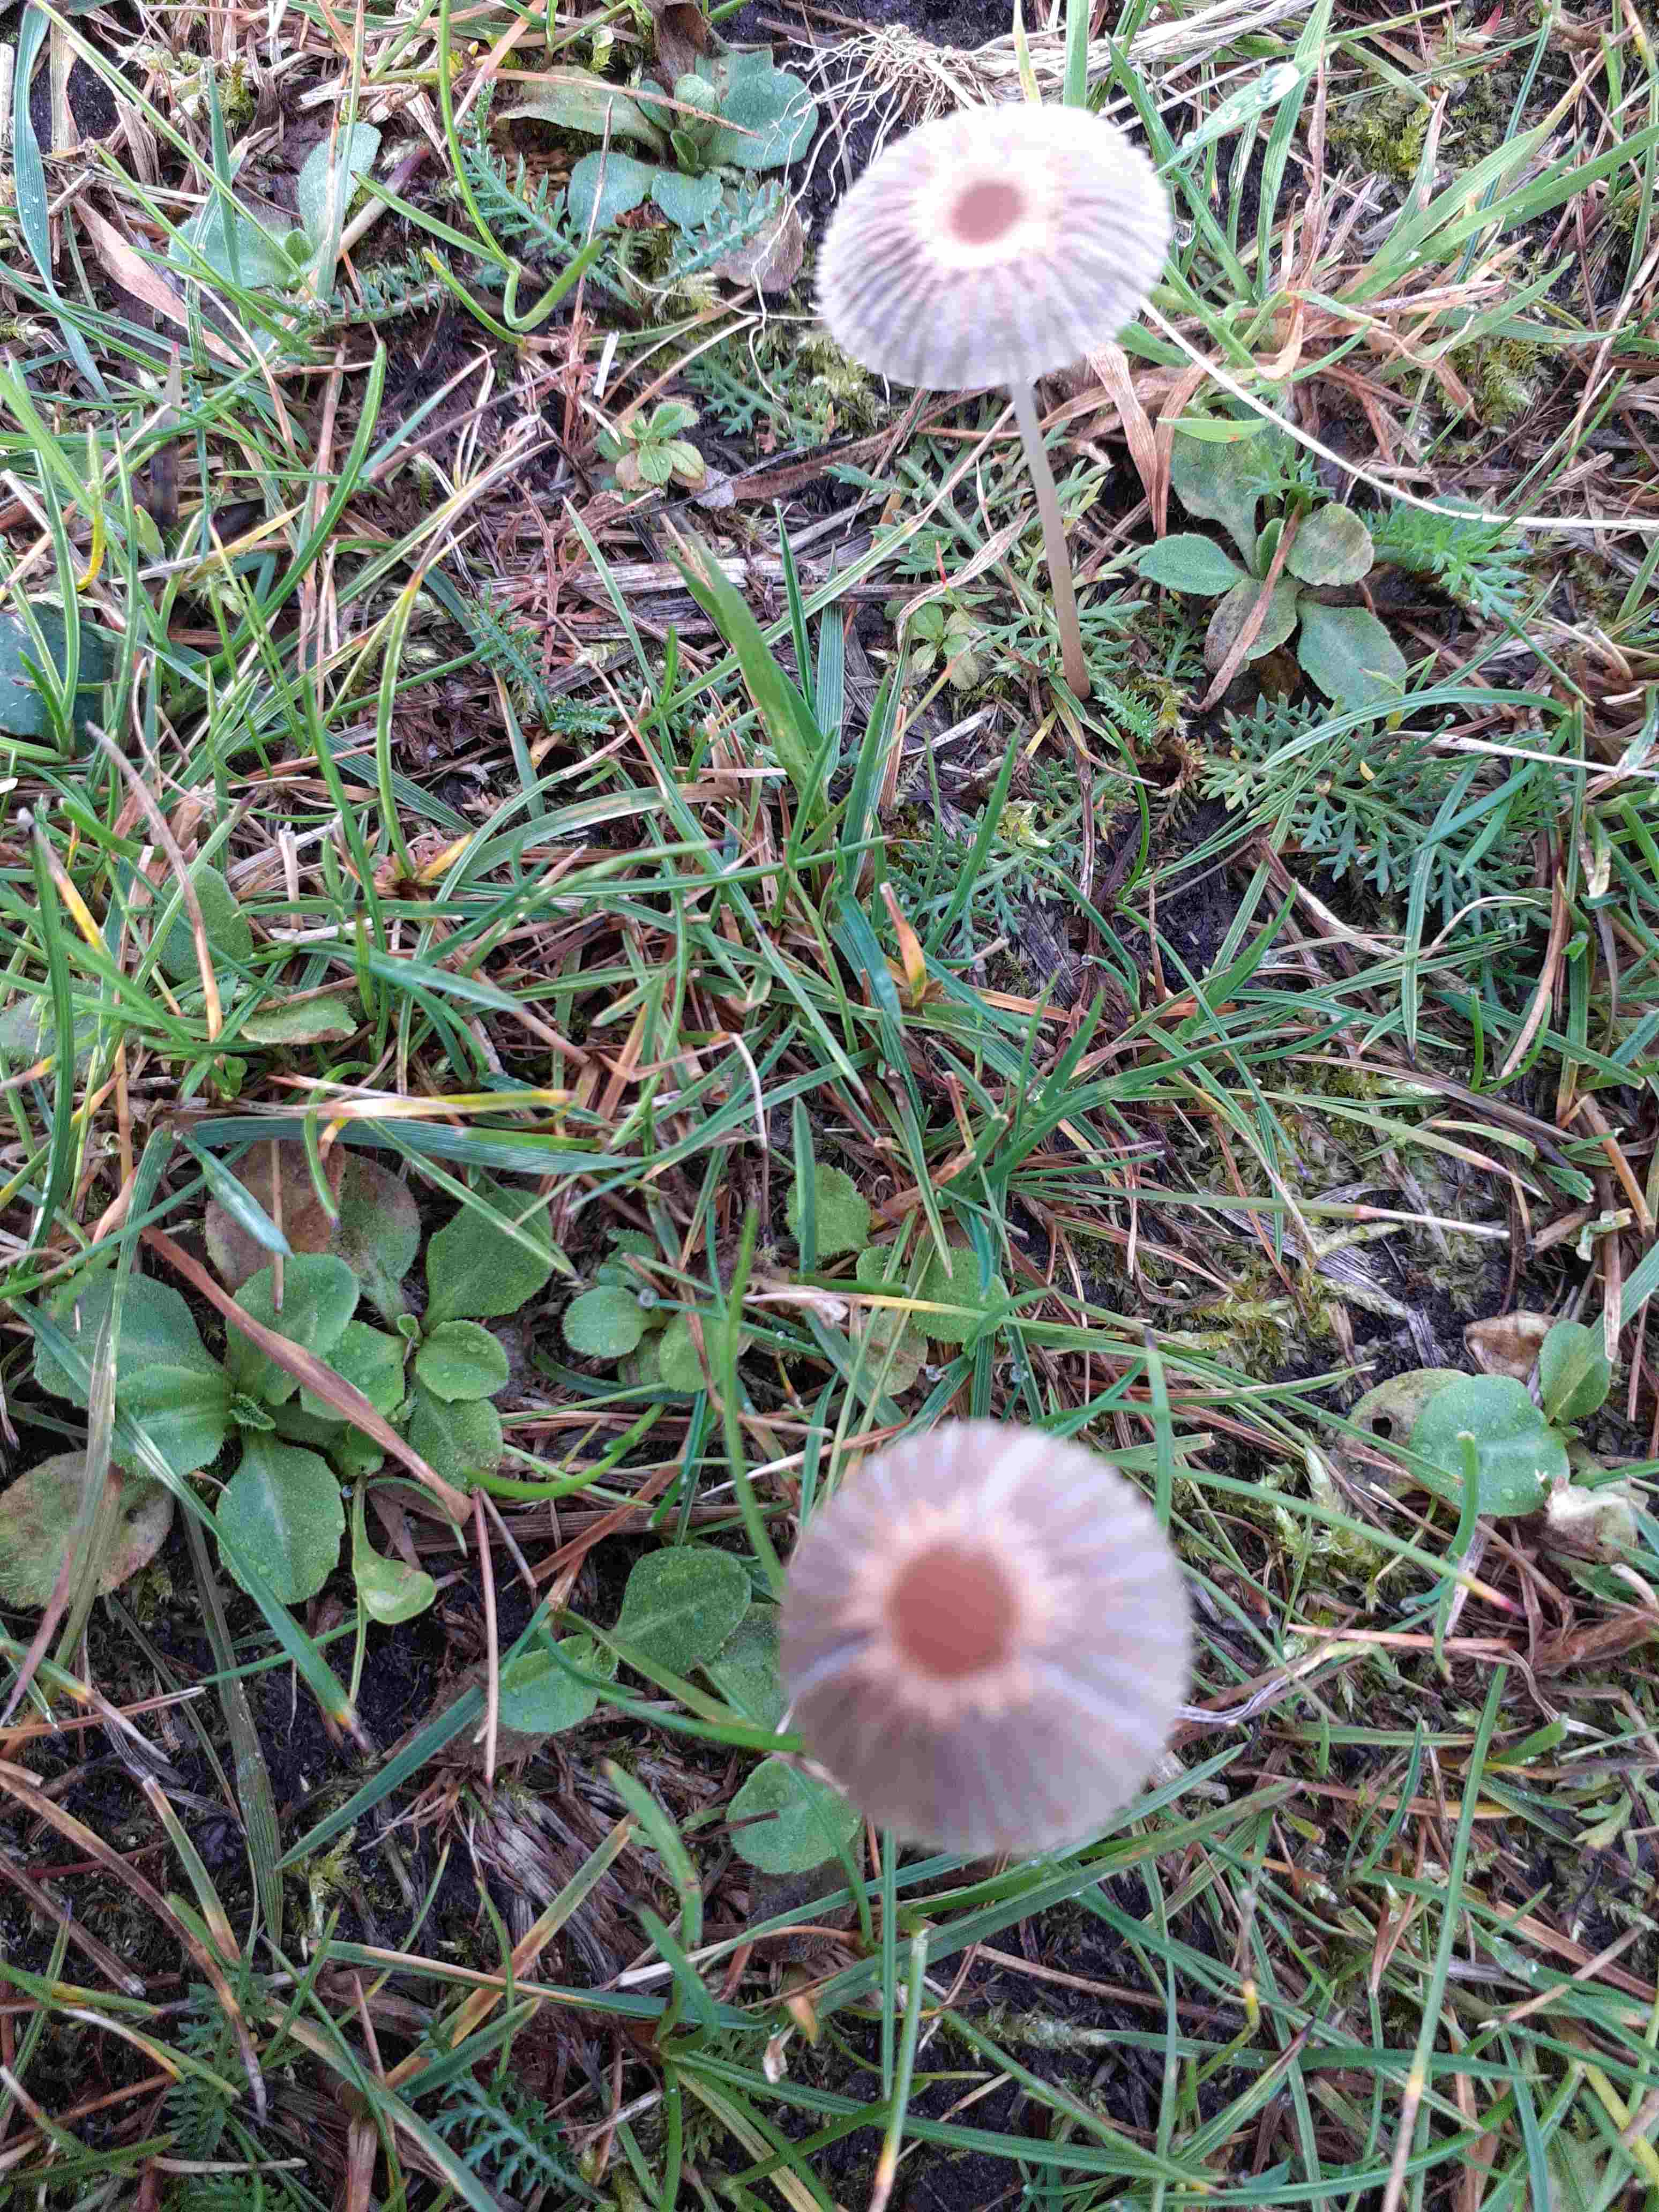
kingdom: Fungi
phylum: Basidiomycota
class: Agaricomycetes
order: Agaricales
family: Psathyrellaceae
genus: Parasola
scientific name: Parasola
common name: hjulhat
